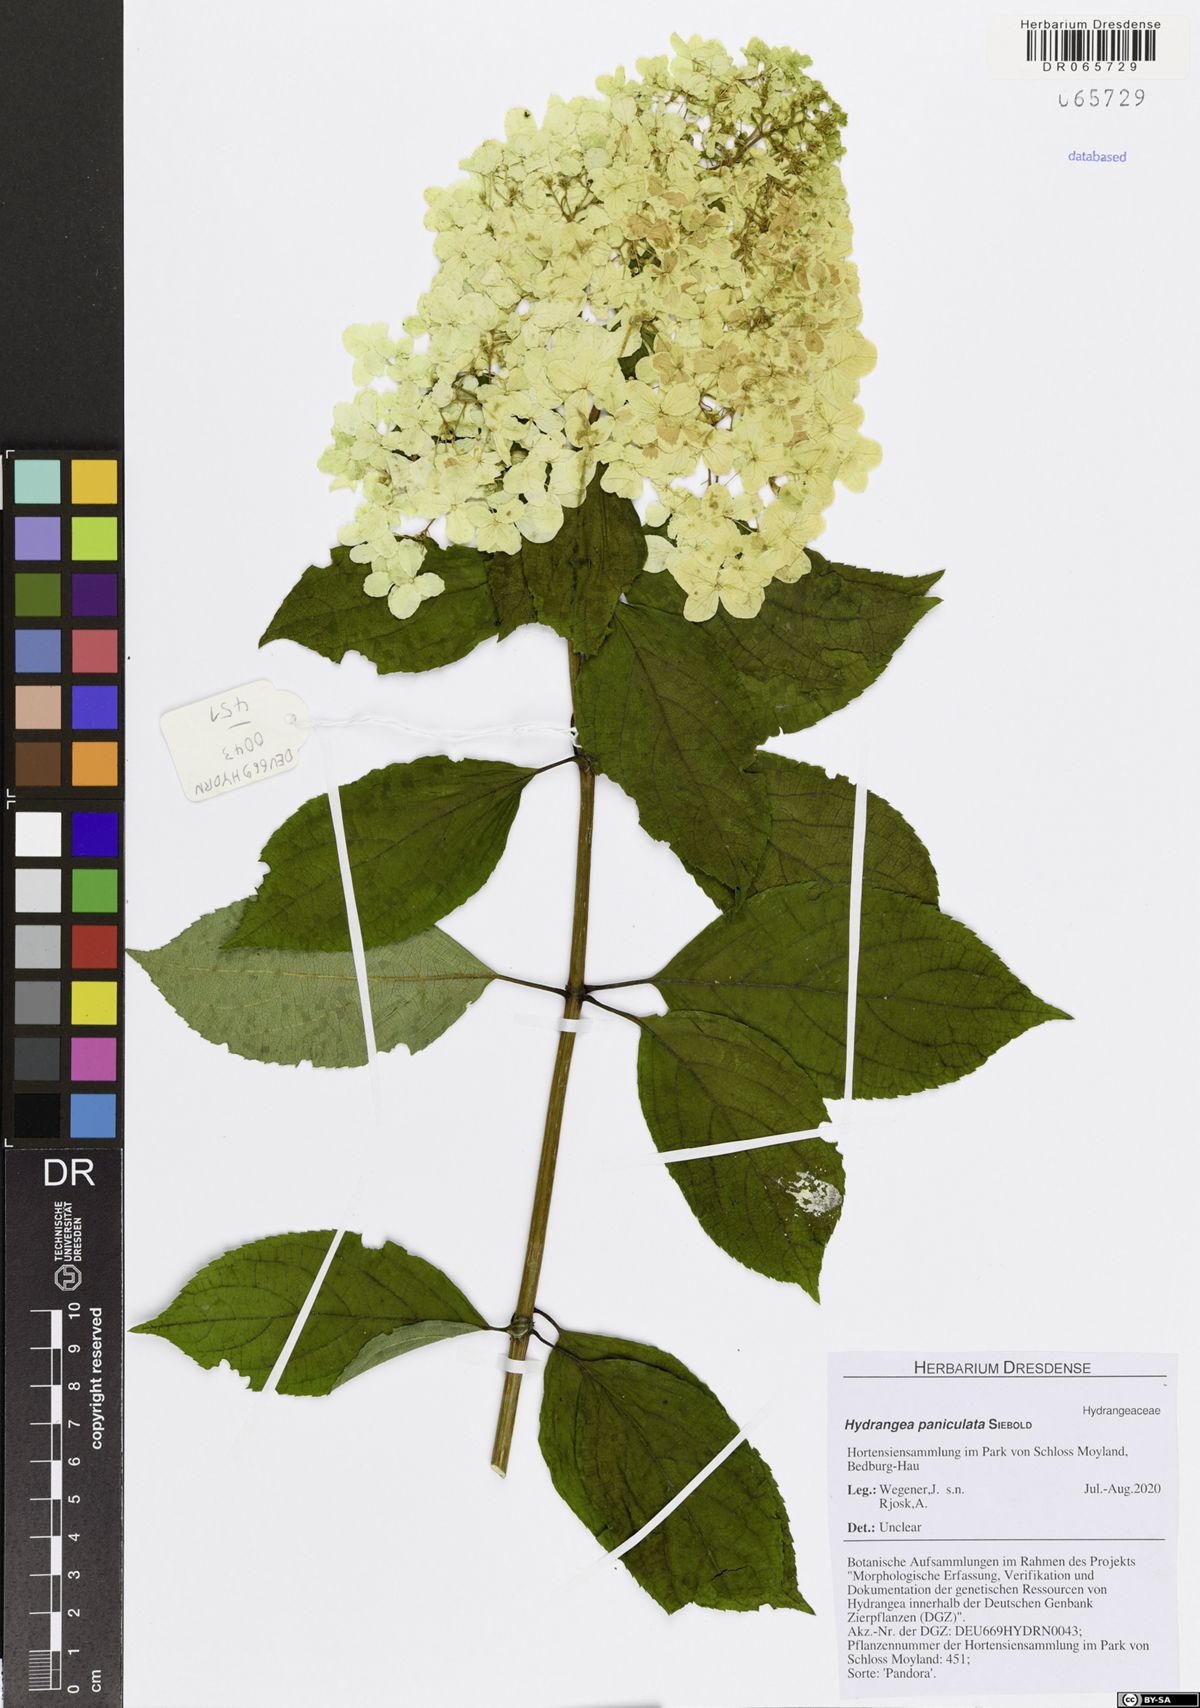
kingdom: Plantae
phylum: Tracheophyta
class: Magnoliopsida
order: Cornales
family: Hydrangeaceae
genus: Hydrangea
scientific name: Hydrangea paniculata
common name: Panicled hydrangea
